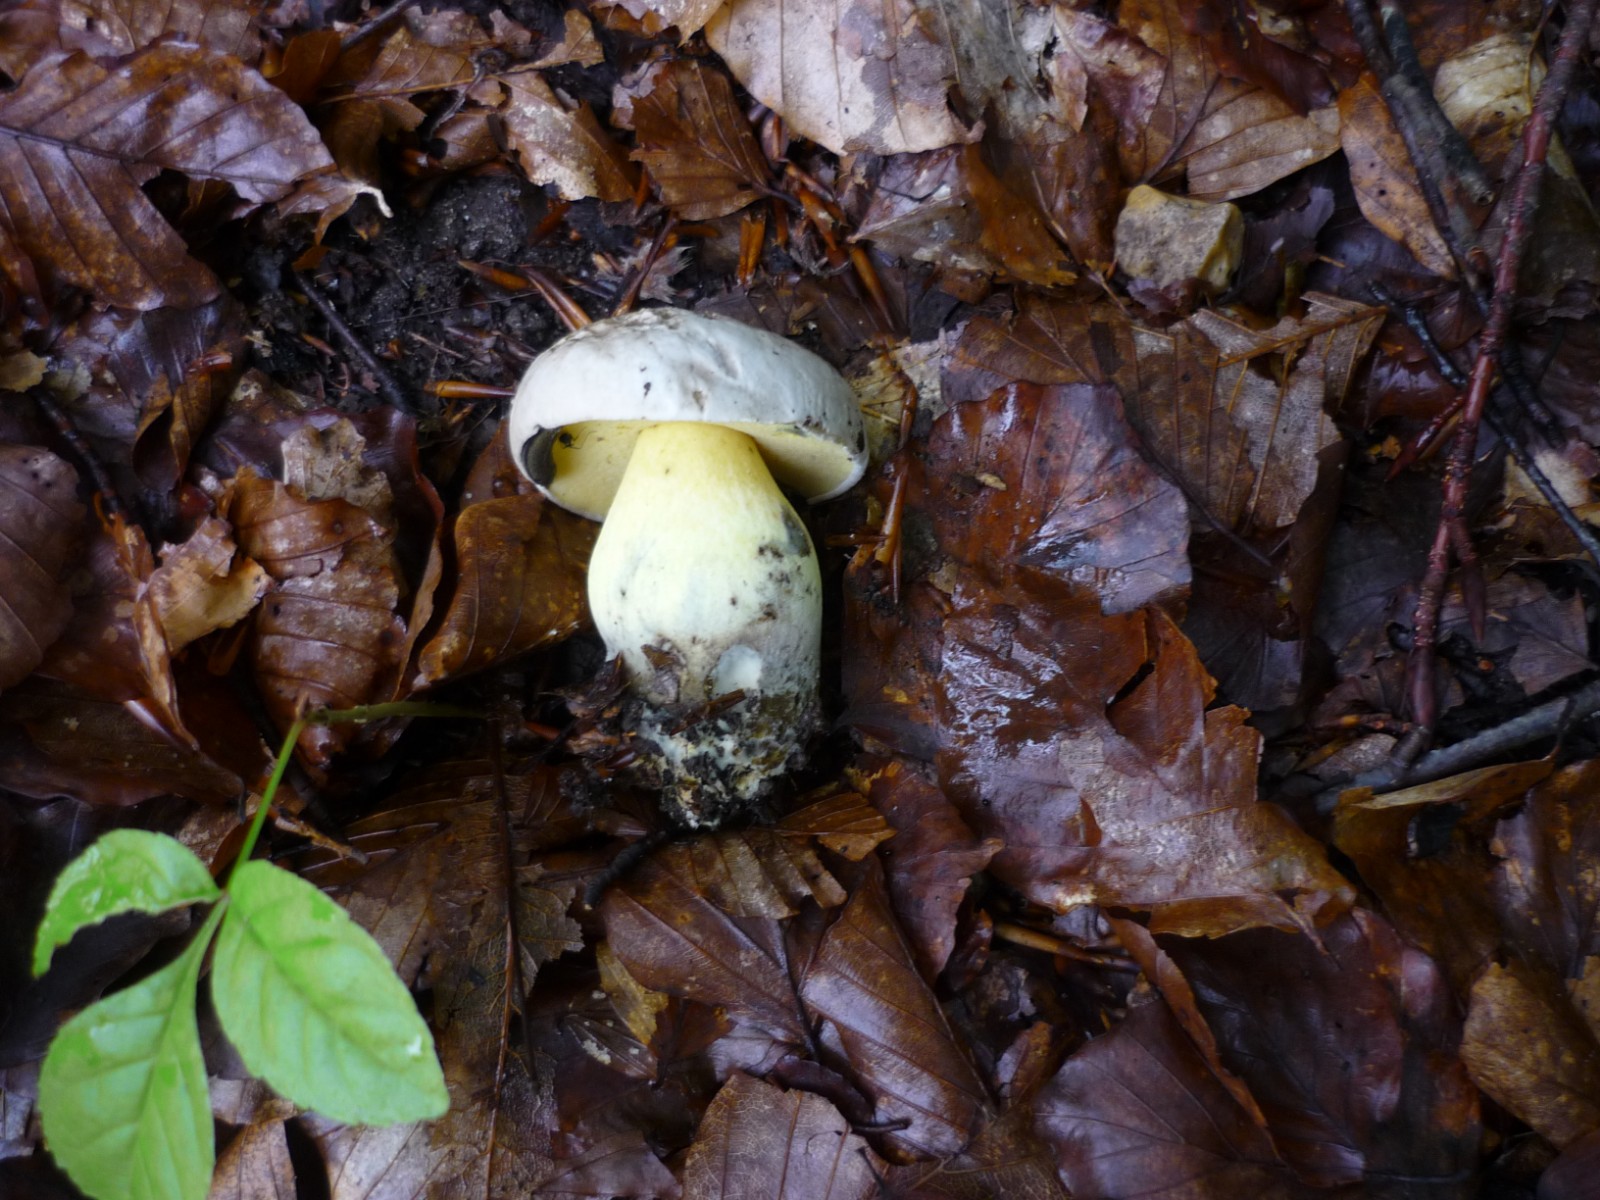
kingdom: Fungi
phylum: Basidiomycota
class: Agaricomycetes
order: Boletales
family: Boletaceae
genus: Caloboletus
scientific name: Caloboletus radicans
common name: rod-rørhat
